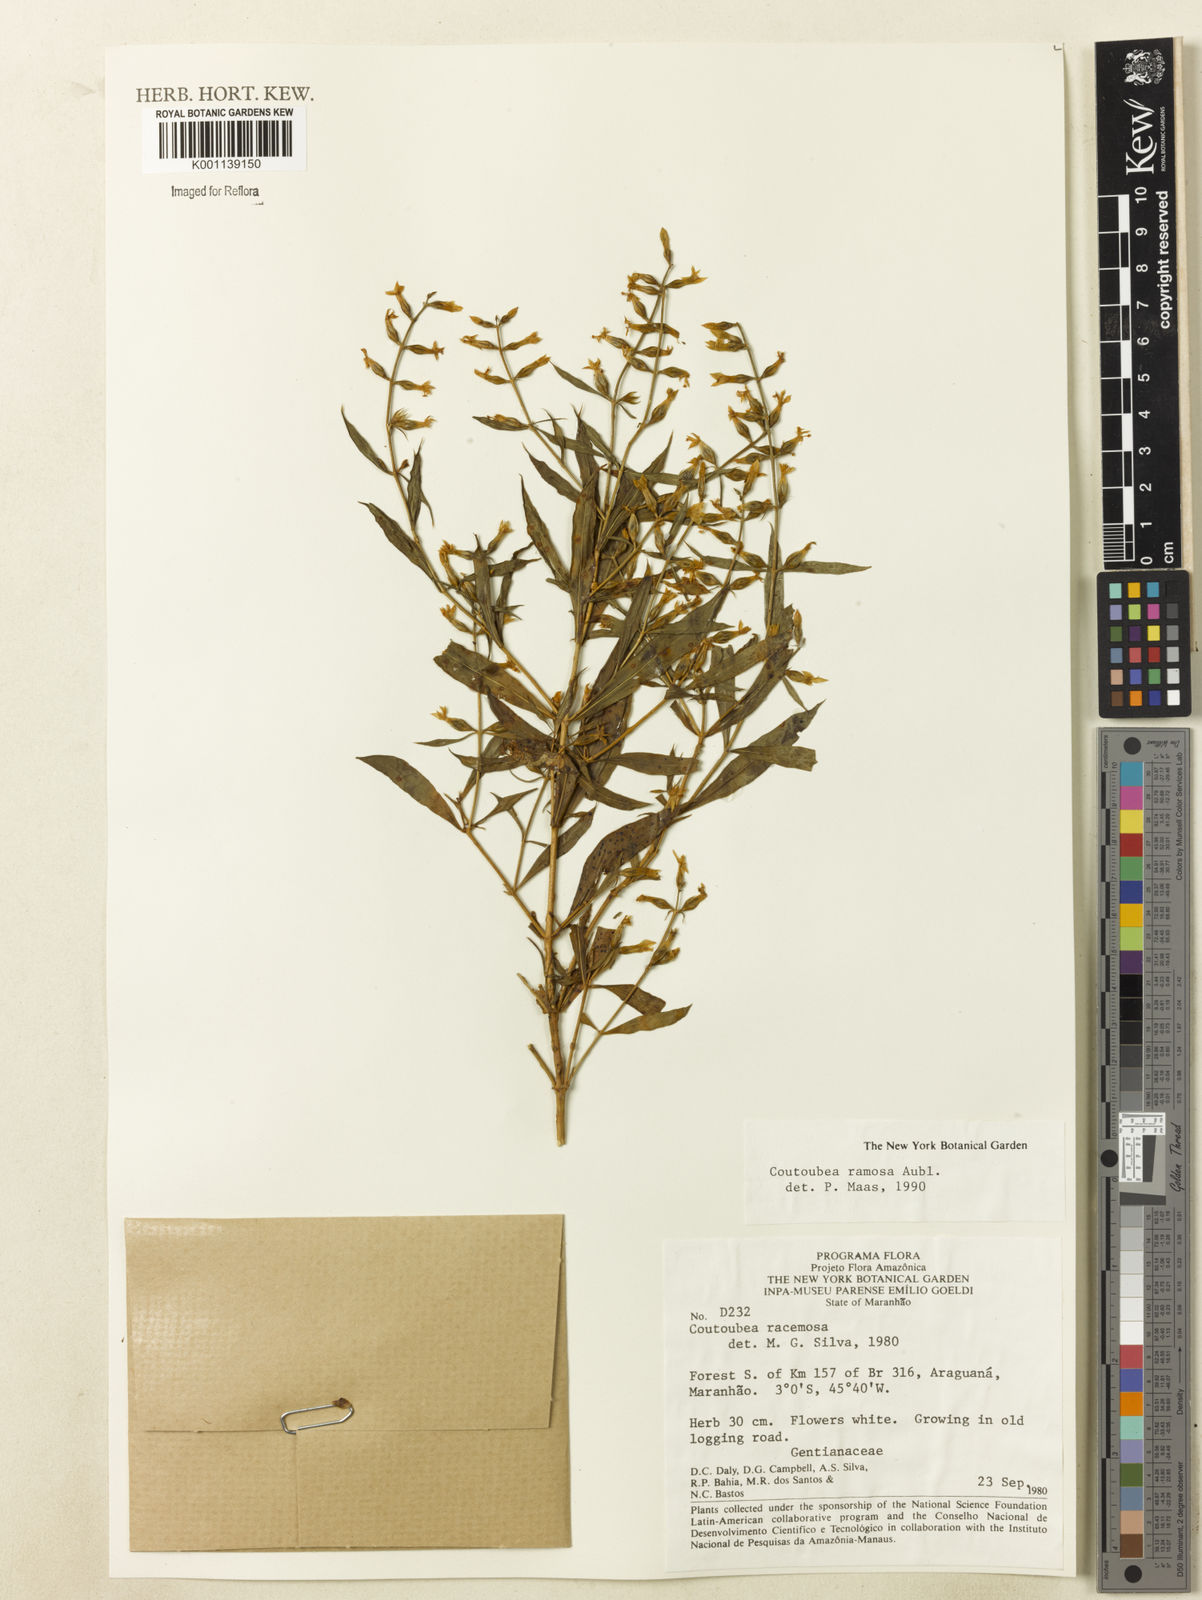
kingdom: Plantae
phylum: Tracheophyta
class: Magnoliopsida
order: Gentianales
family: Gentianaceae
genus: Coutoubea
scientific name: Coutoubea ramosa
